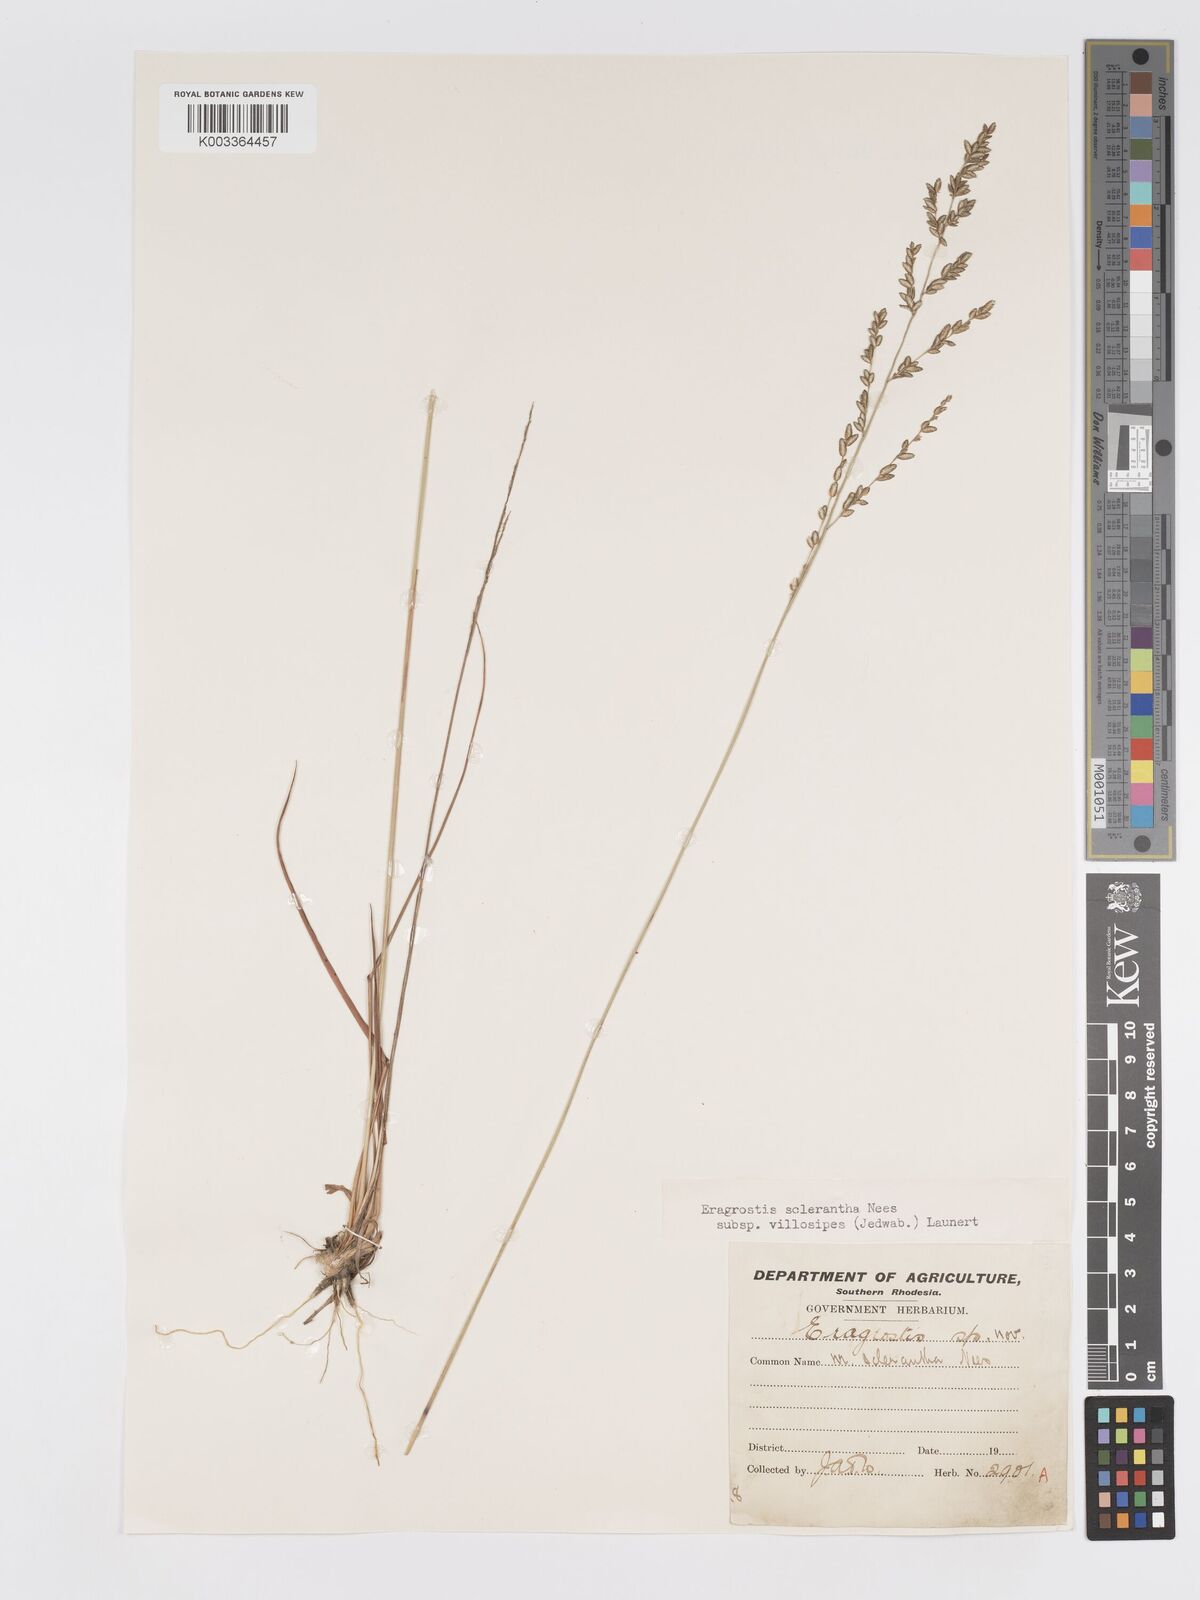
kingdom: Plantae
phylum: Tracheophyta
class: Liliopsida
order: Poales
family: Poaceae
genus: Eragrostis
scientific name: Eragrostis sclerantha
